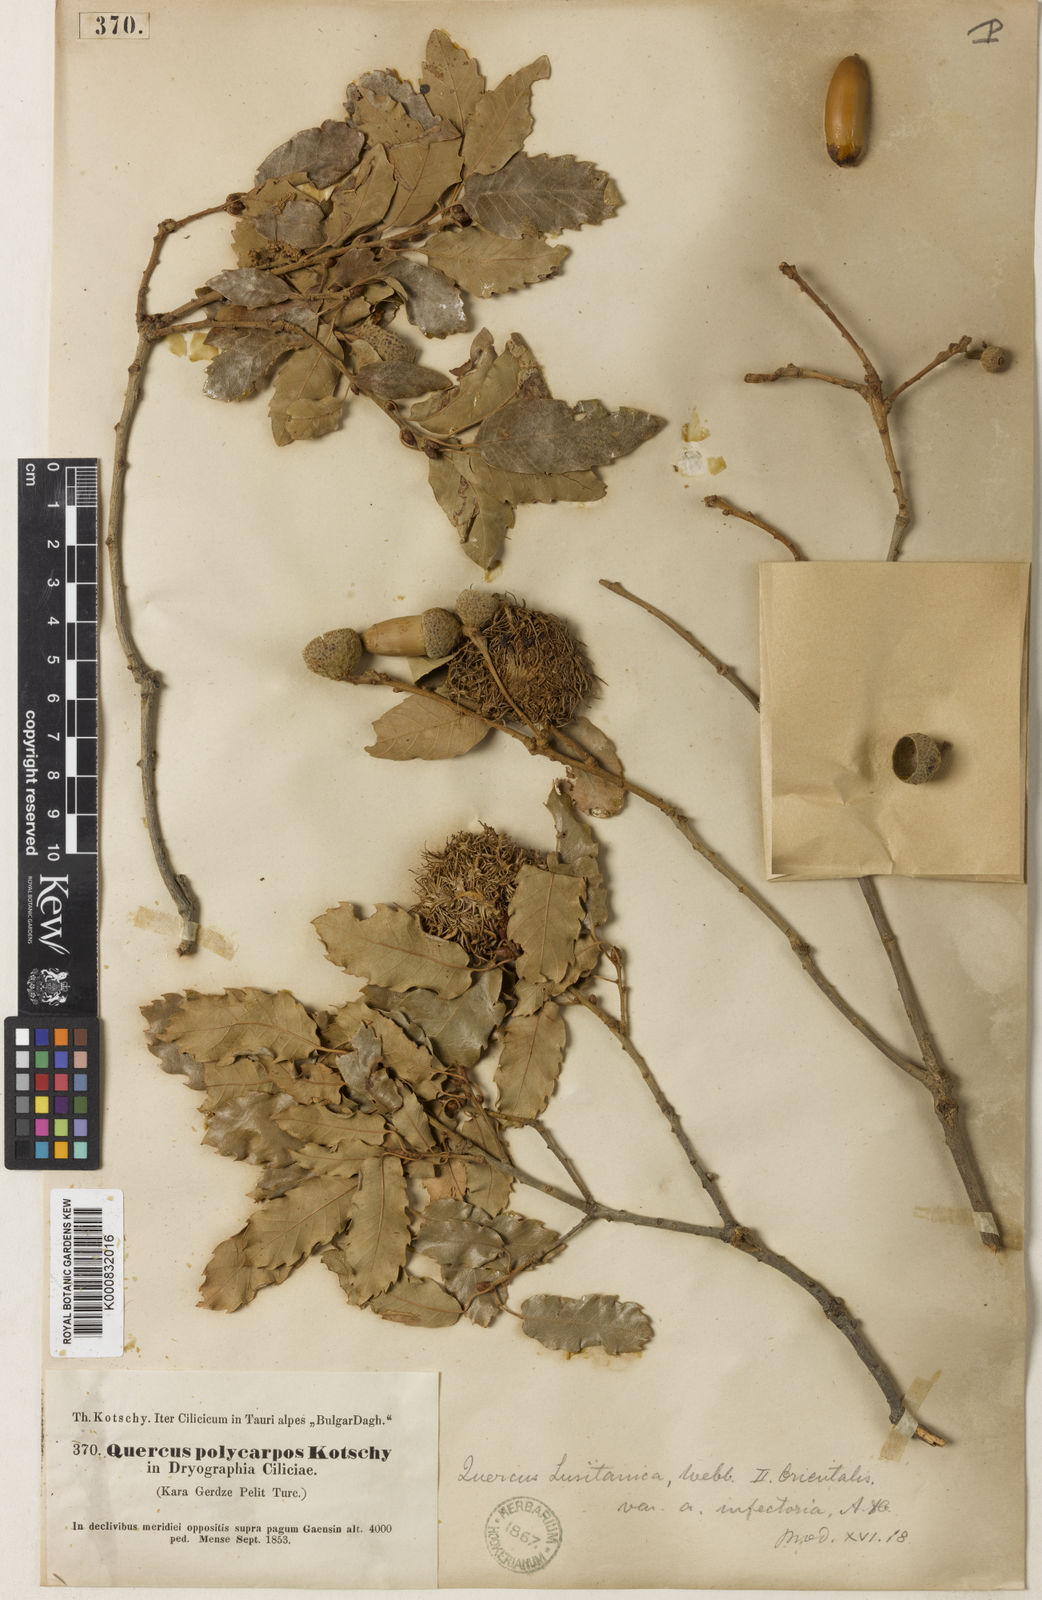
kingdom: Plantae
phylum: Tracheophyta
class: Magnoliopsida
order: Fagales
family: Fagaceae
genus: Quercus
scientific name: Quercus infectoria
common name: Aleppo oak
